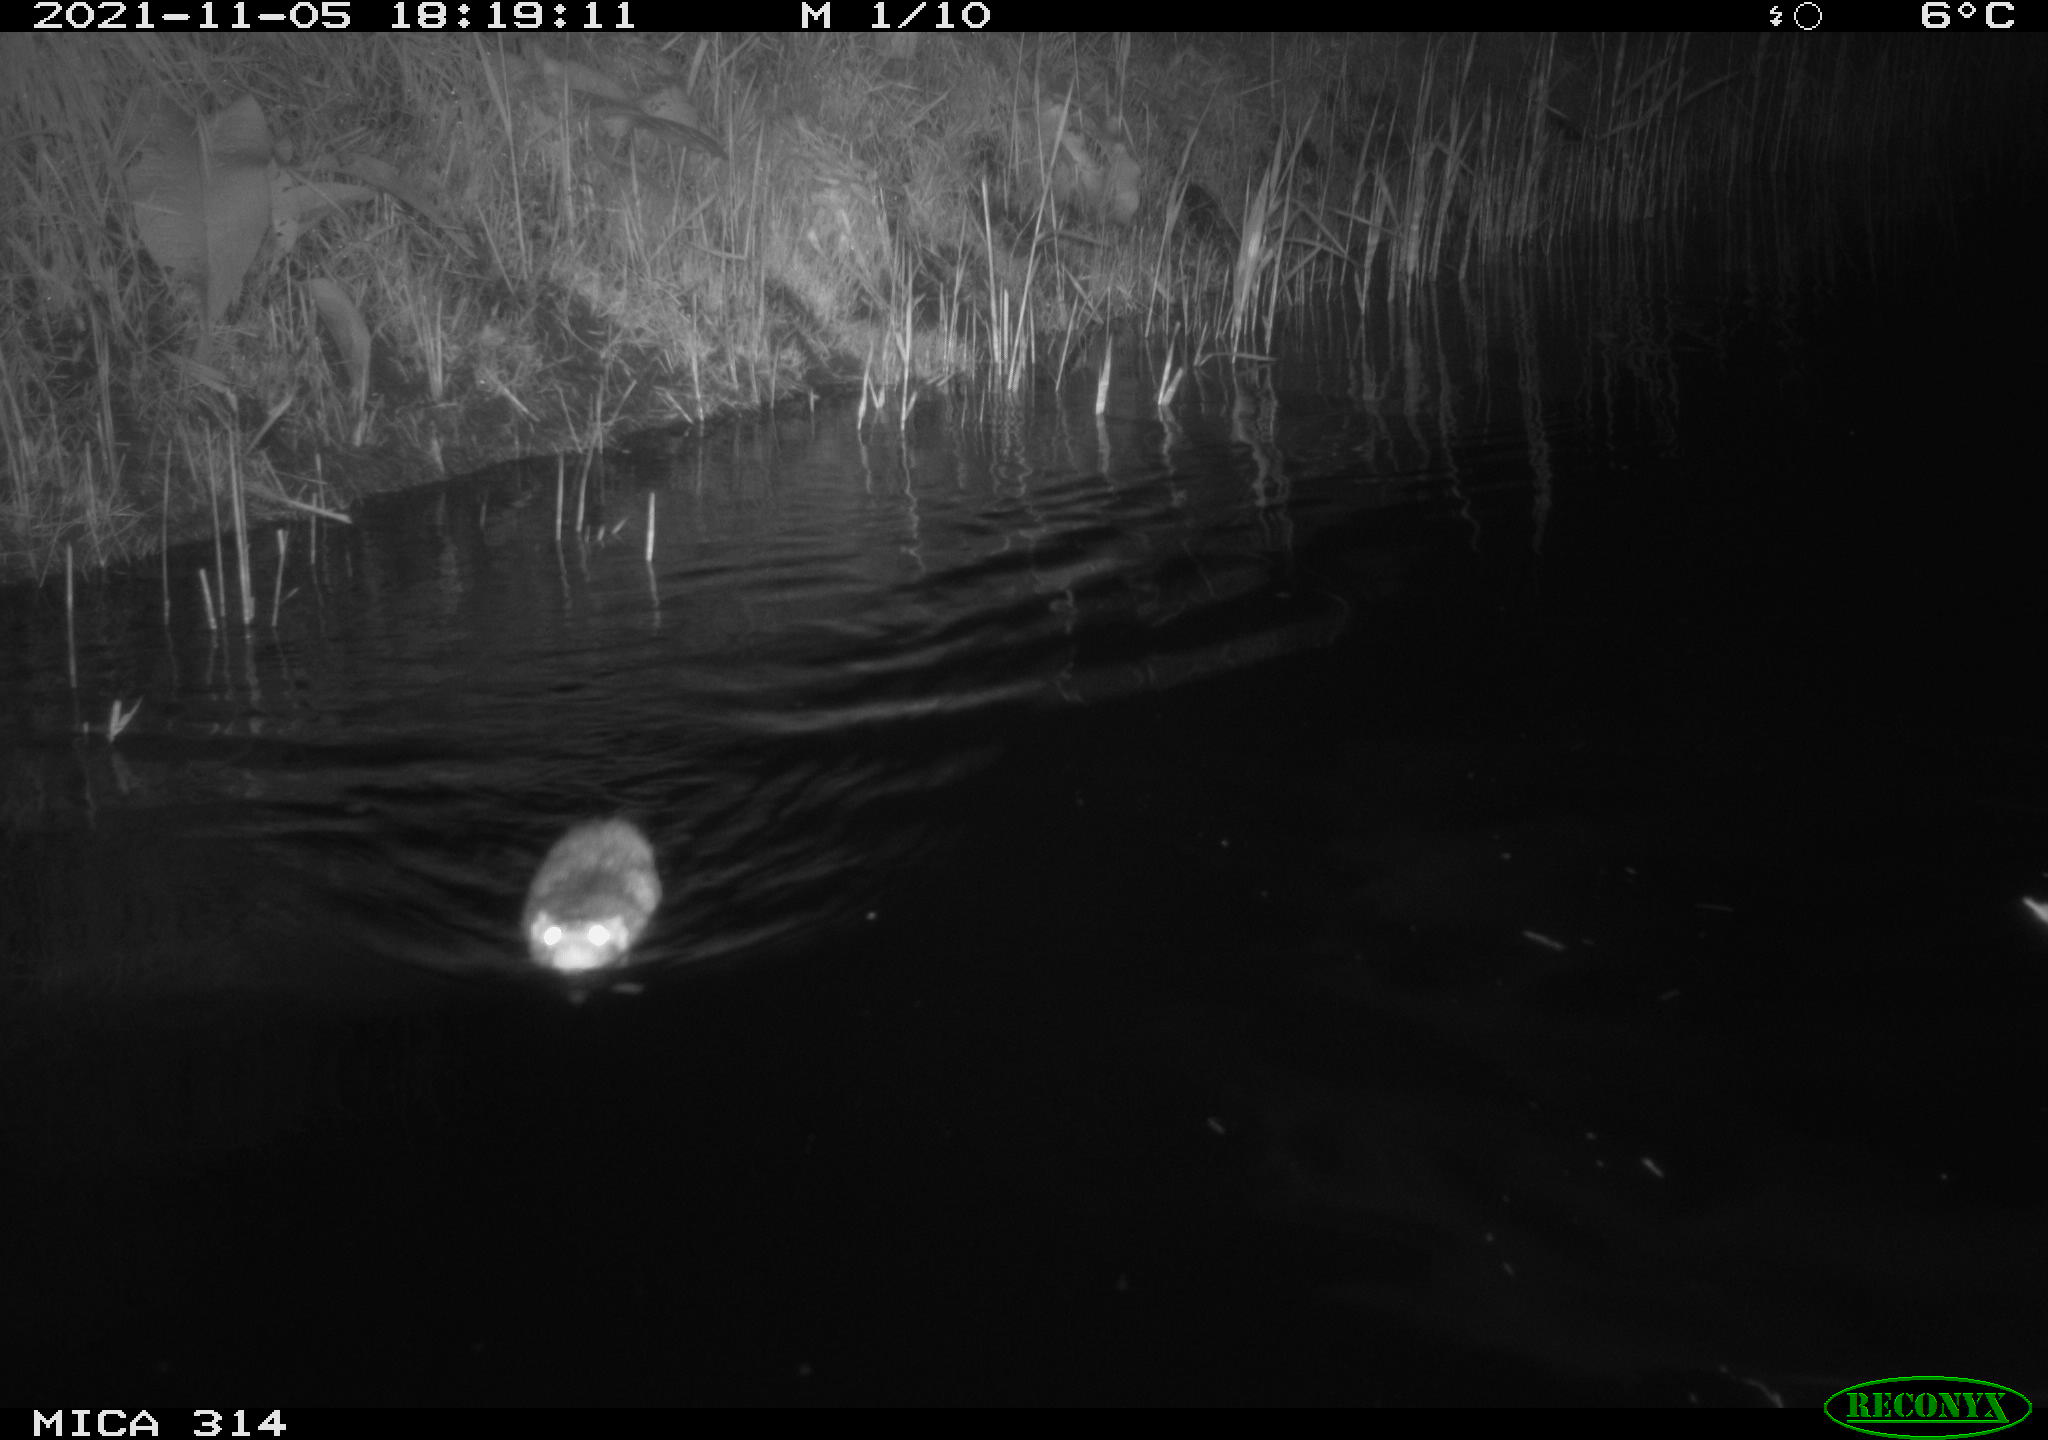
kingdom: Animalia
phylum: Chordata
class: Mammalia
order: Rodentia
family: Muridae
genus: Rattus
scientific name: Rattus norvegicus
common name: Brown rat
